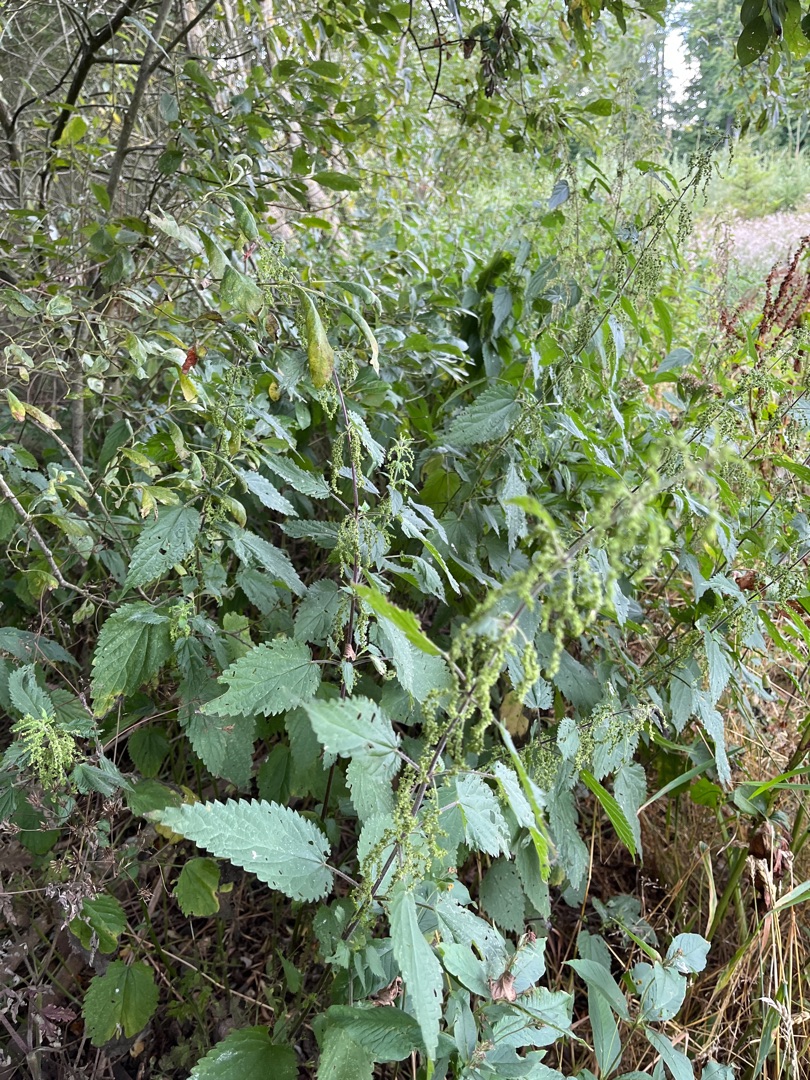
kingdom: Plantae
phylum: Tracheophyta
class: Magnoliopsida
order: Rosales
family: Urticaceae
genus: Urtica
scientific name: Urtica dioica
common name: Stor nælde
